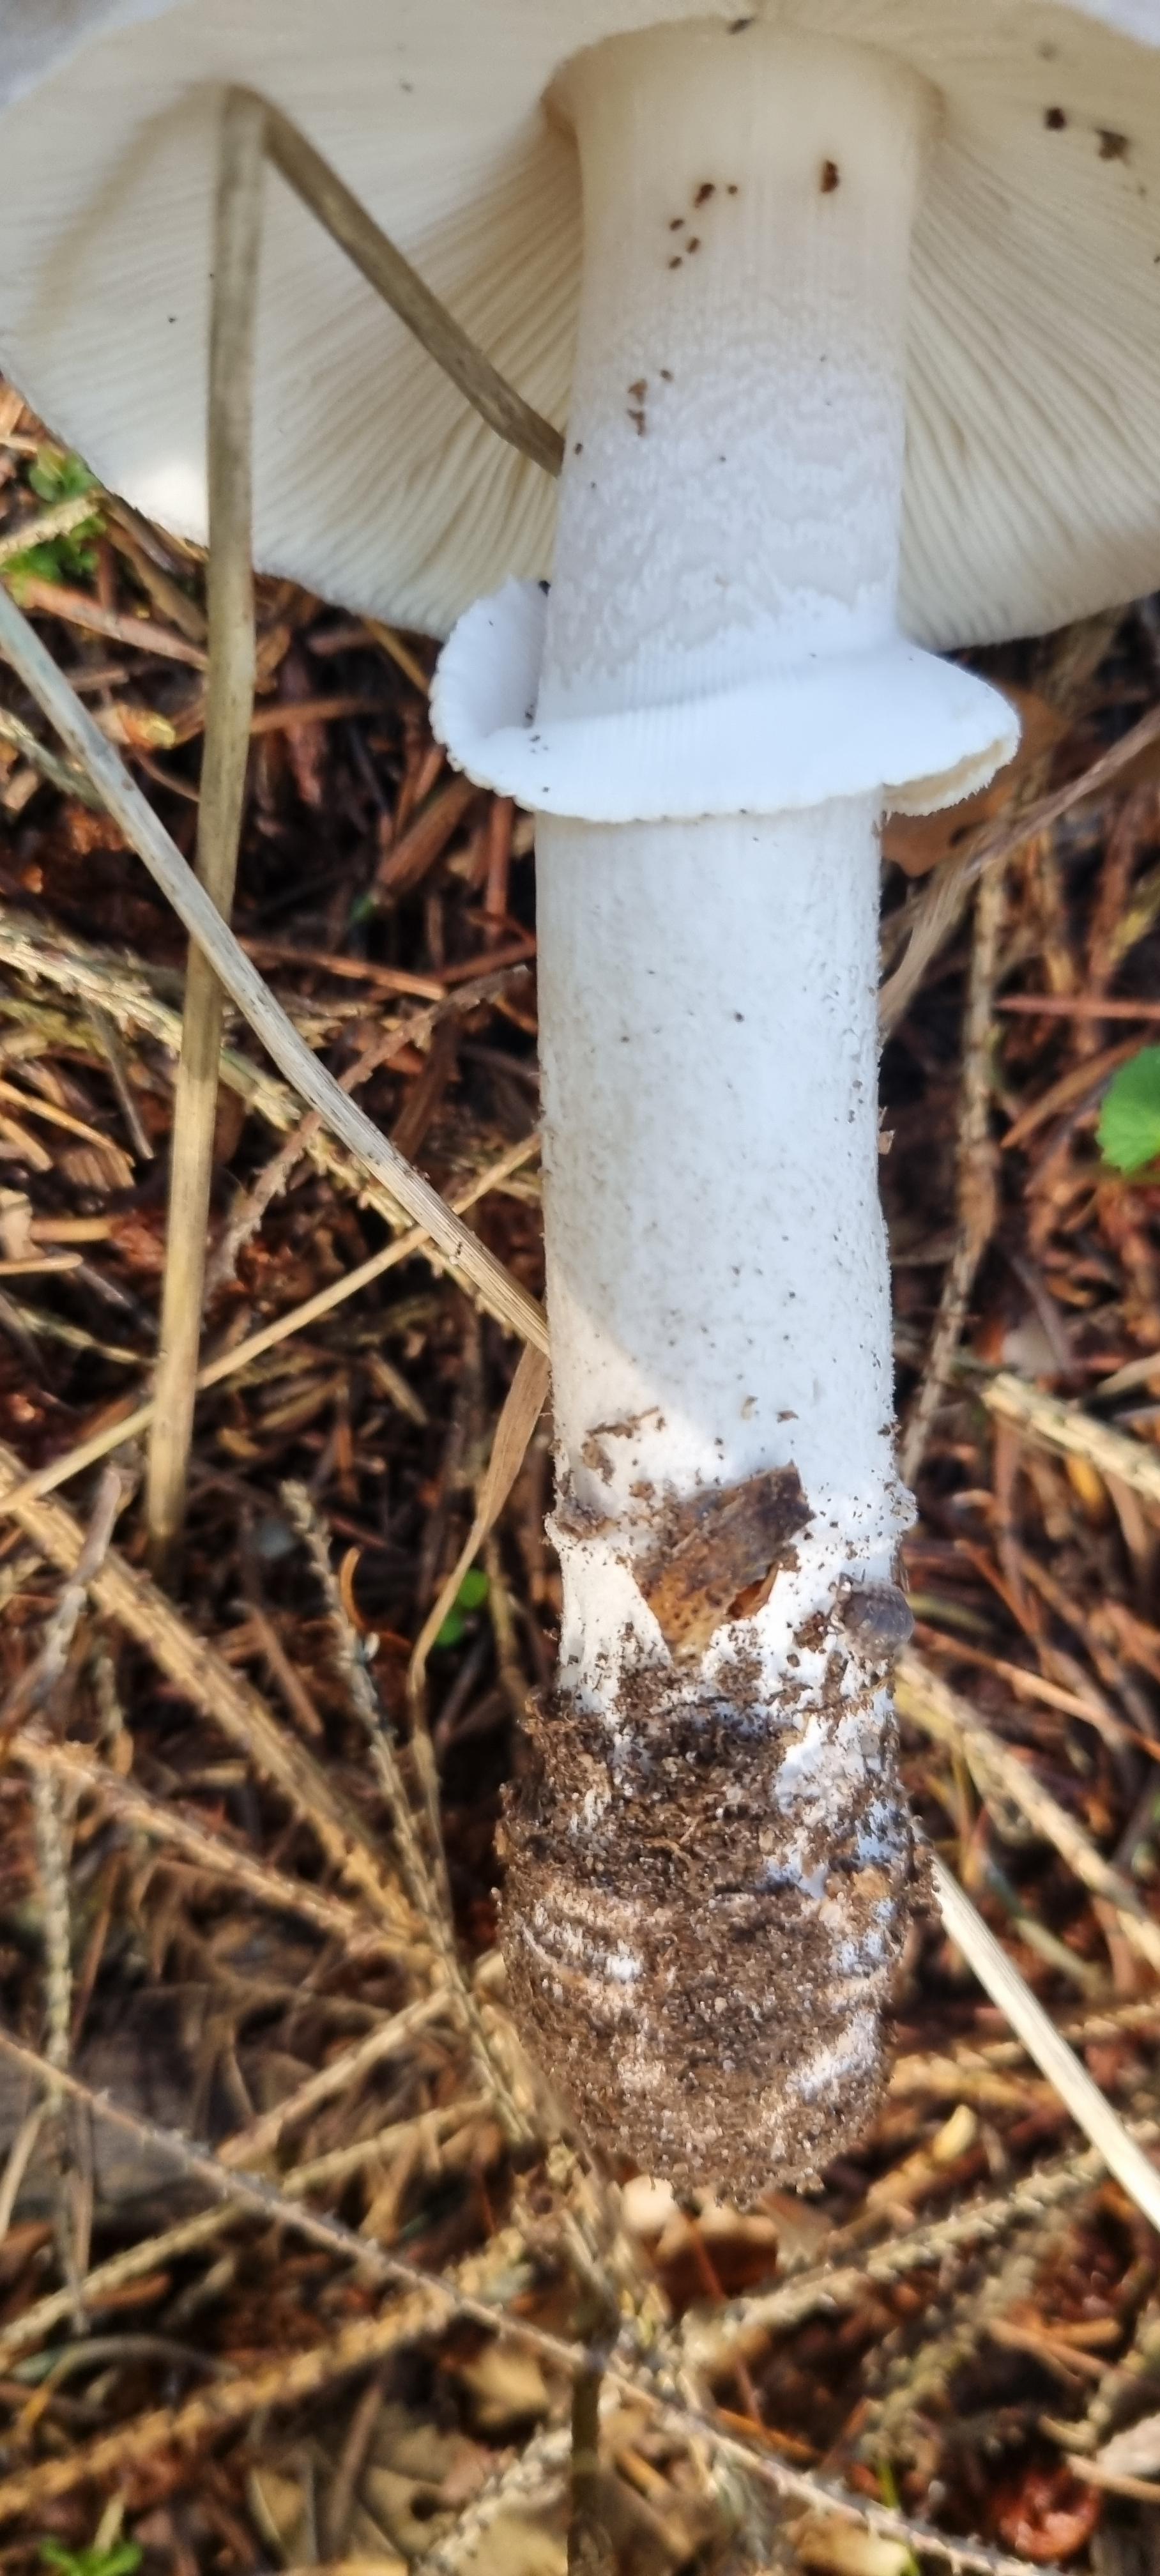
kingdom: Fungi
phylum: Basidiomycota
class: Agaricomycetes
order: Agaricales
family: Amanitaceae
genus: Amanita
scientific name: Amanita
